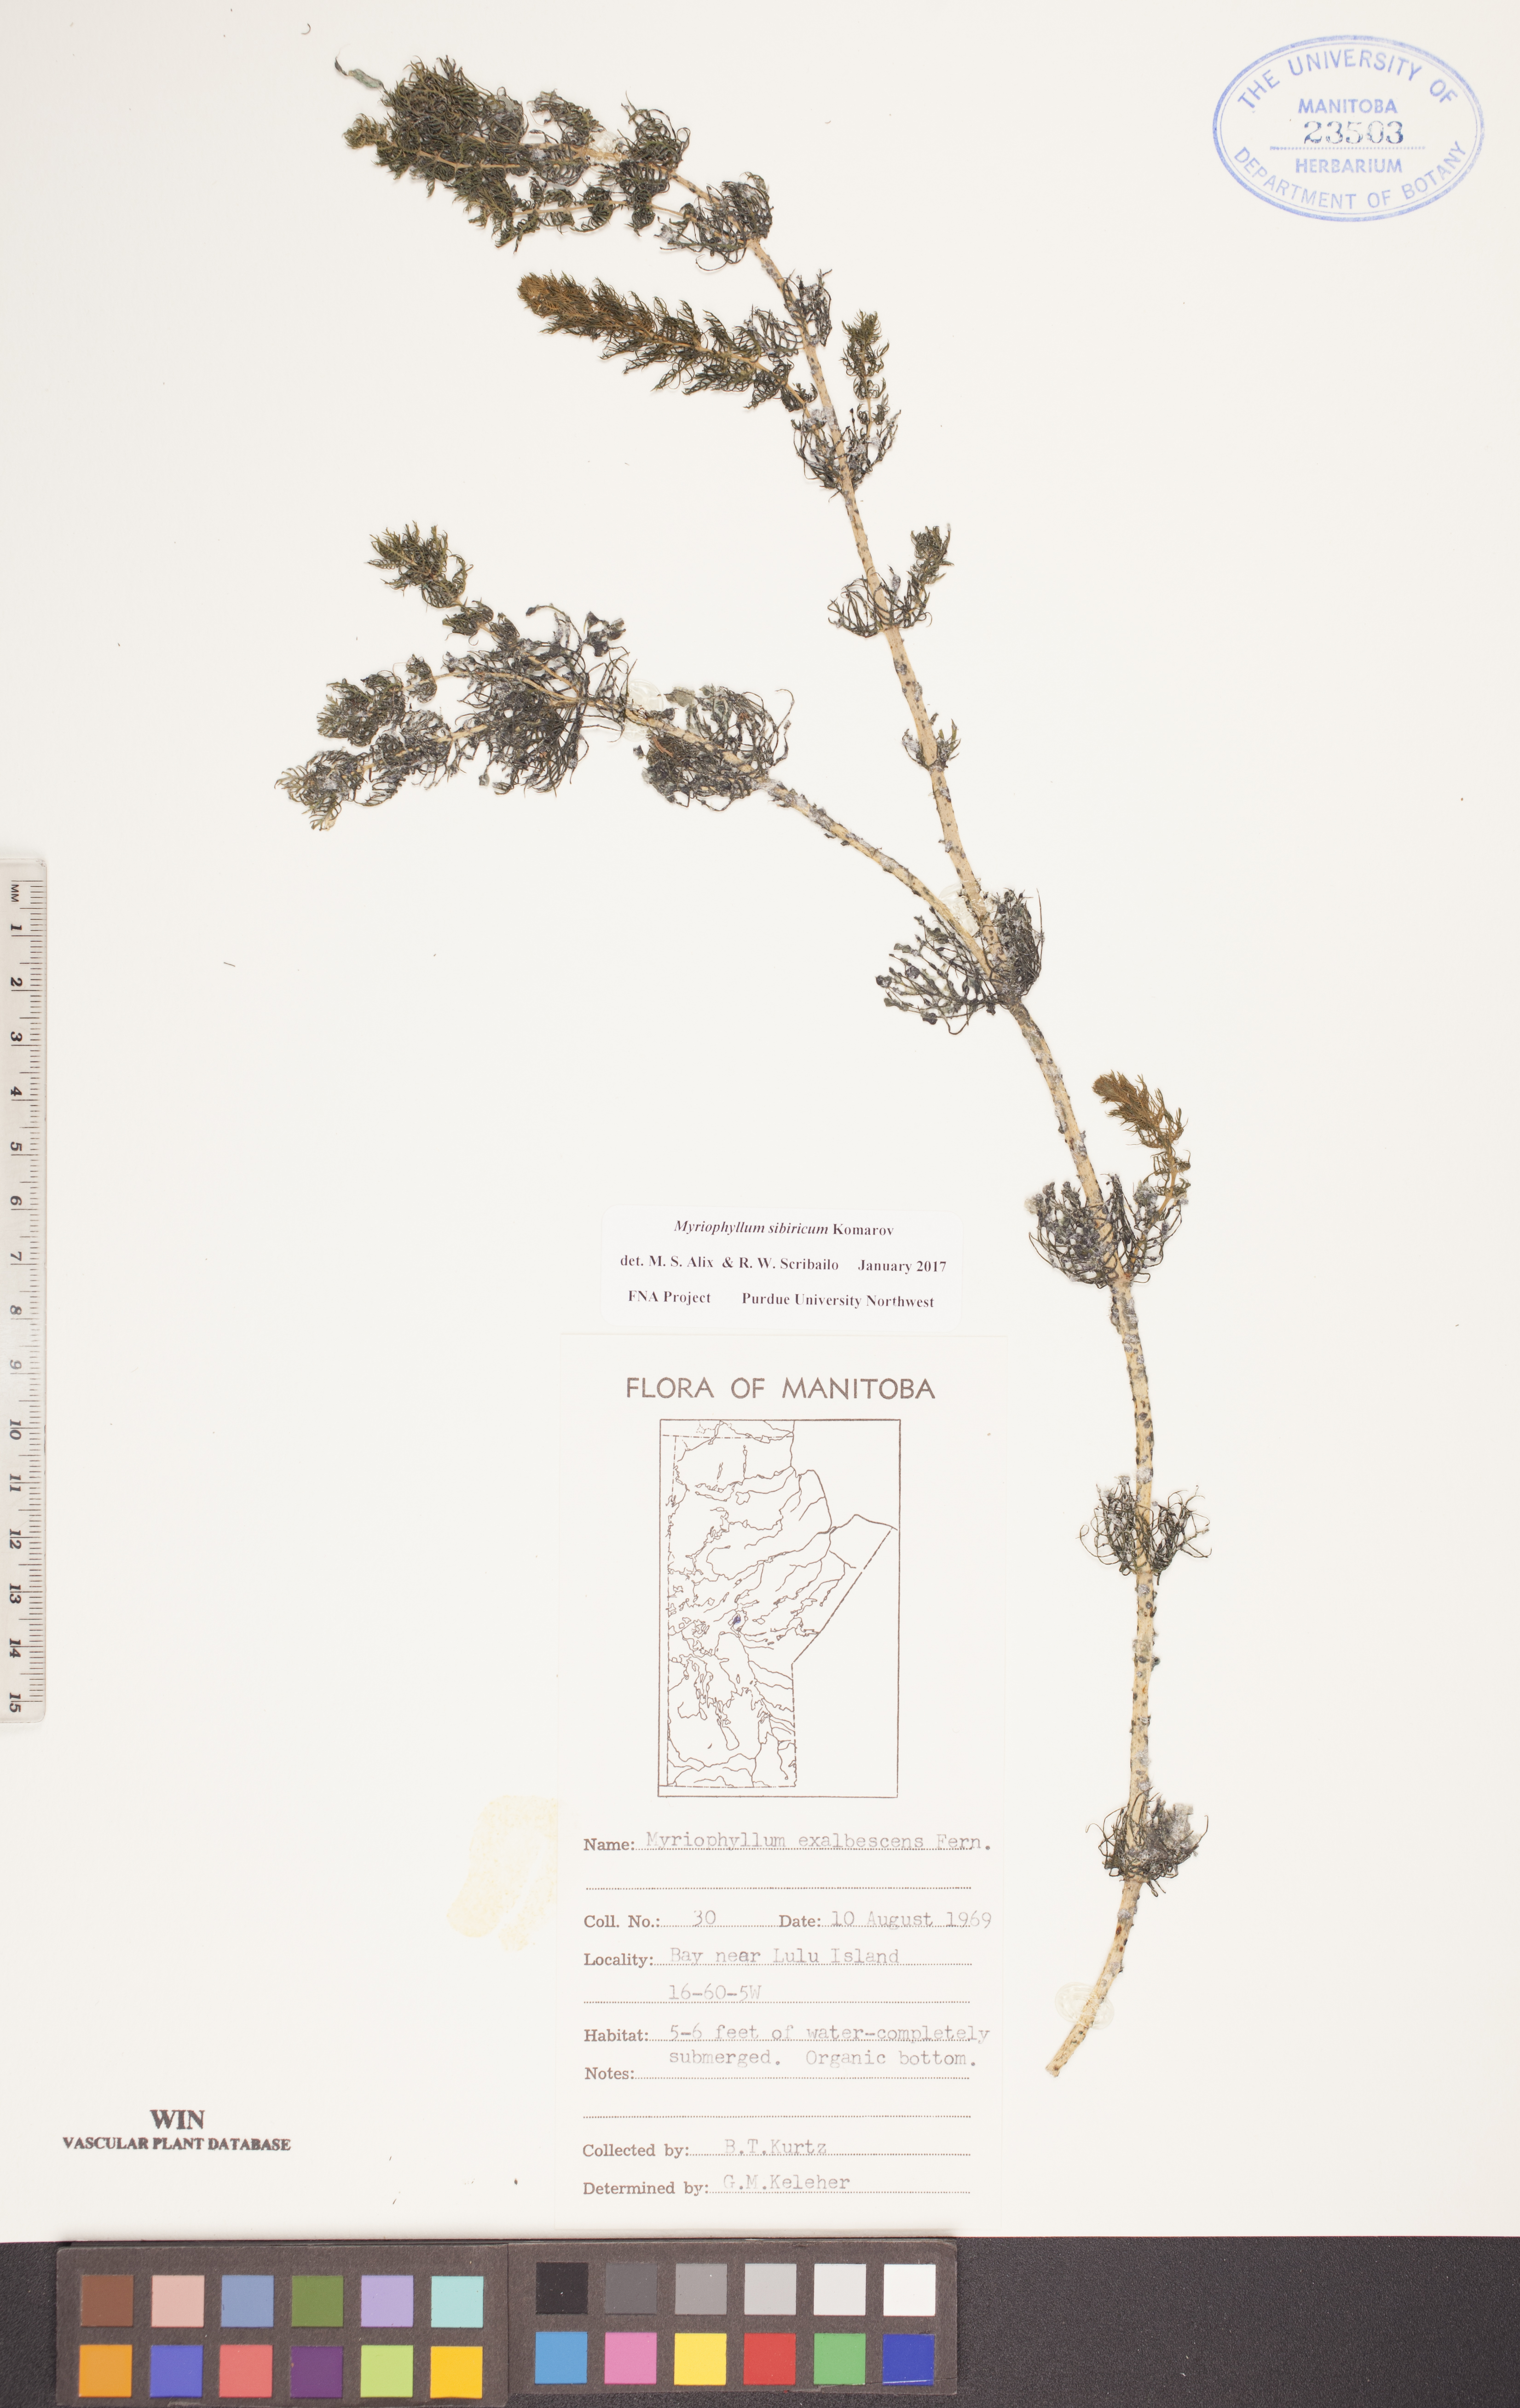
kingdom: Plantae
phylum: Tracheophyta
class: Magnoliopsida
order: Saxifragales
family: Haloragaceae
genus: Myriophyllum
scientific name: Myriophyllum sibiricum
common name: Siberian water-milfoil
